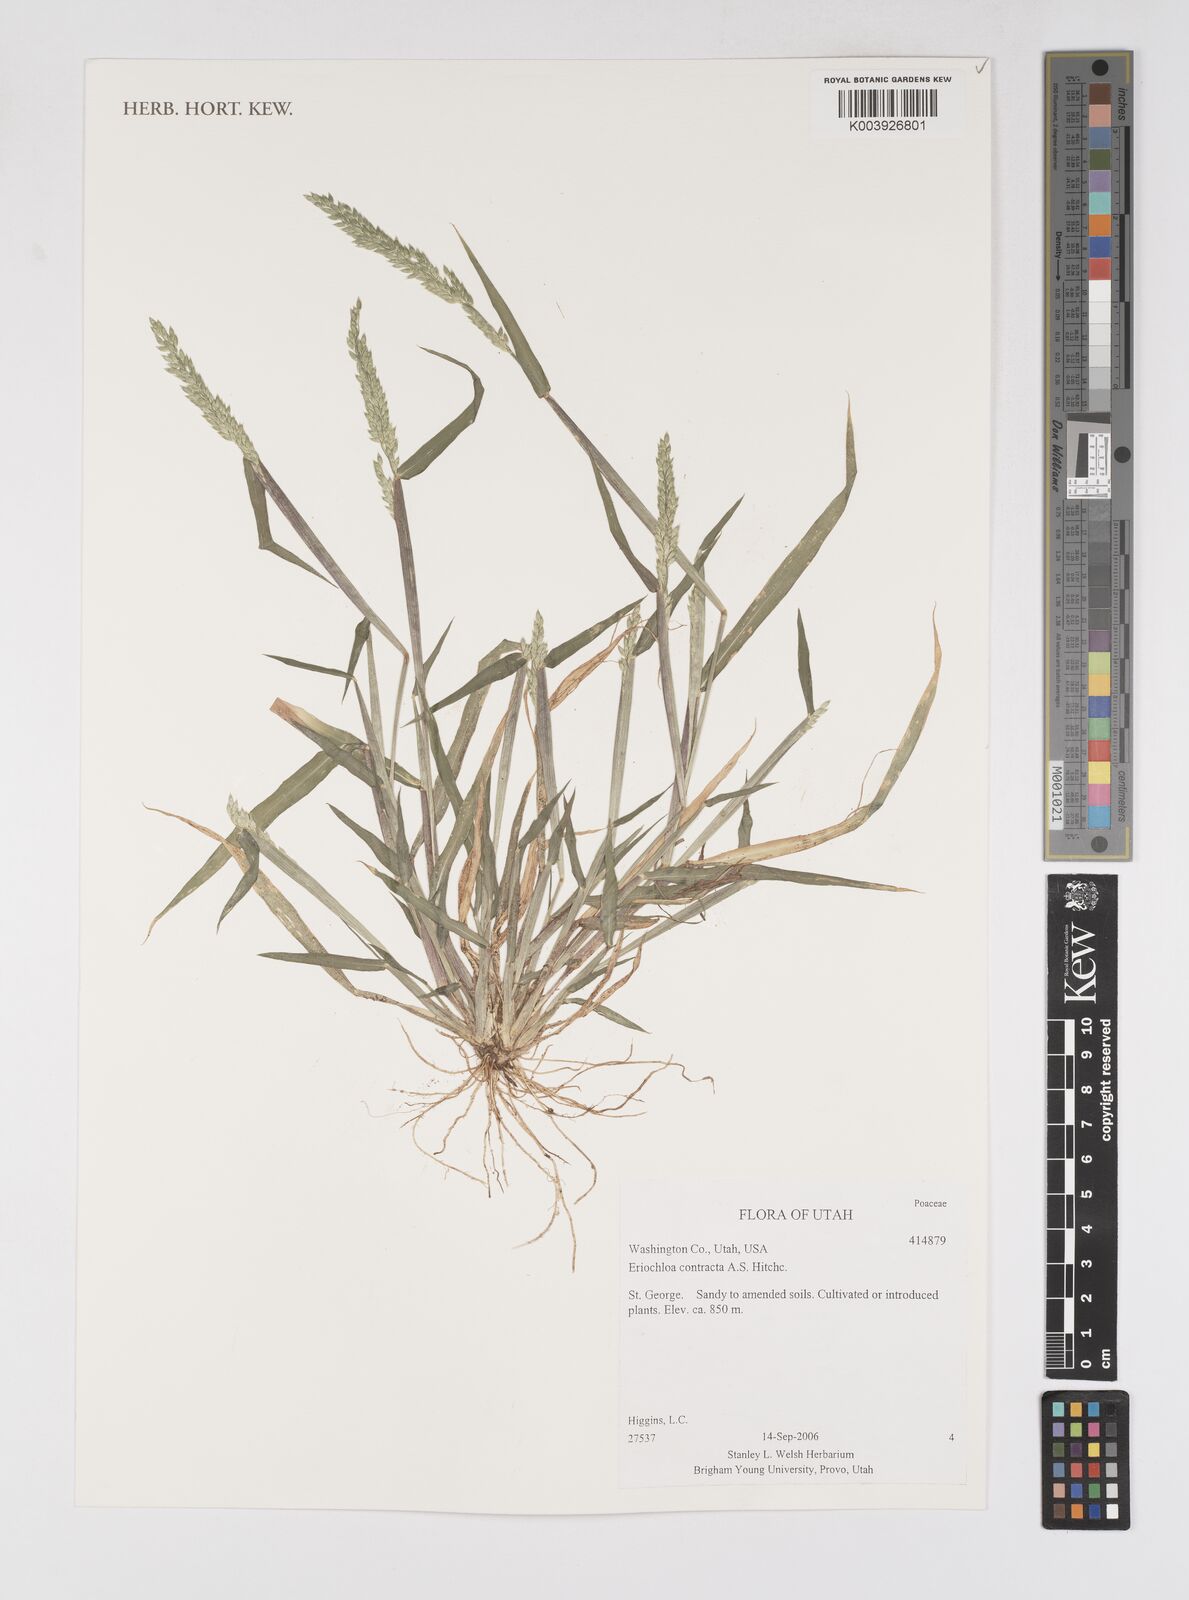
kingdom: Plantae
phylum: Tracheophyta
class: Liliopsida
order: Poales
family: Poaceae
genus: Eriochloa
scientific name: Eriochloa contracta
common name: Prairie cup grass
